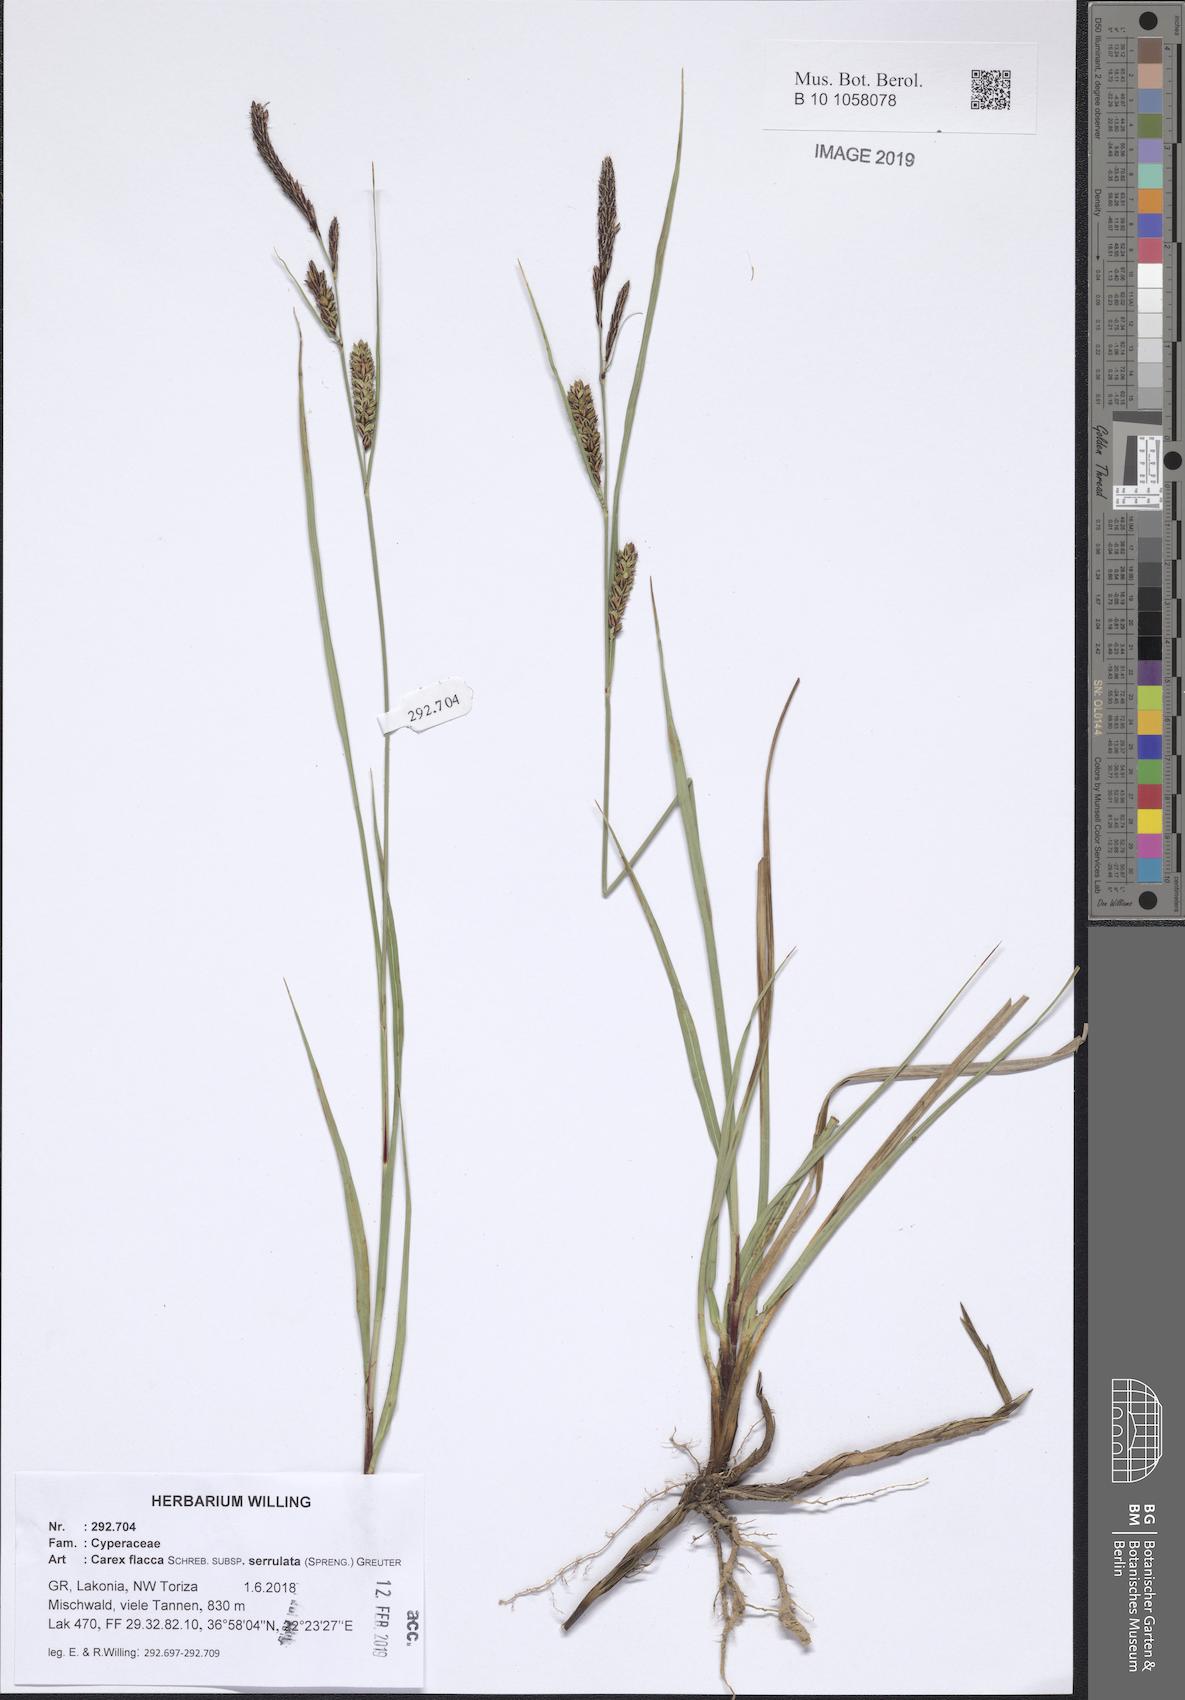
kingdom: Plantae
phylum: Tracheophyta
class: Liliopsida
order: Poales
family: Cyperaceae
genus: Carex
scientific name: Carex flacca
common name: Glaucous sedge
